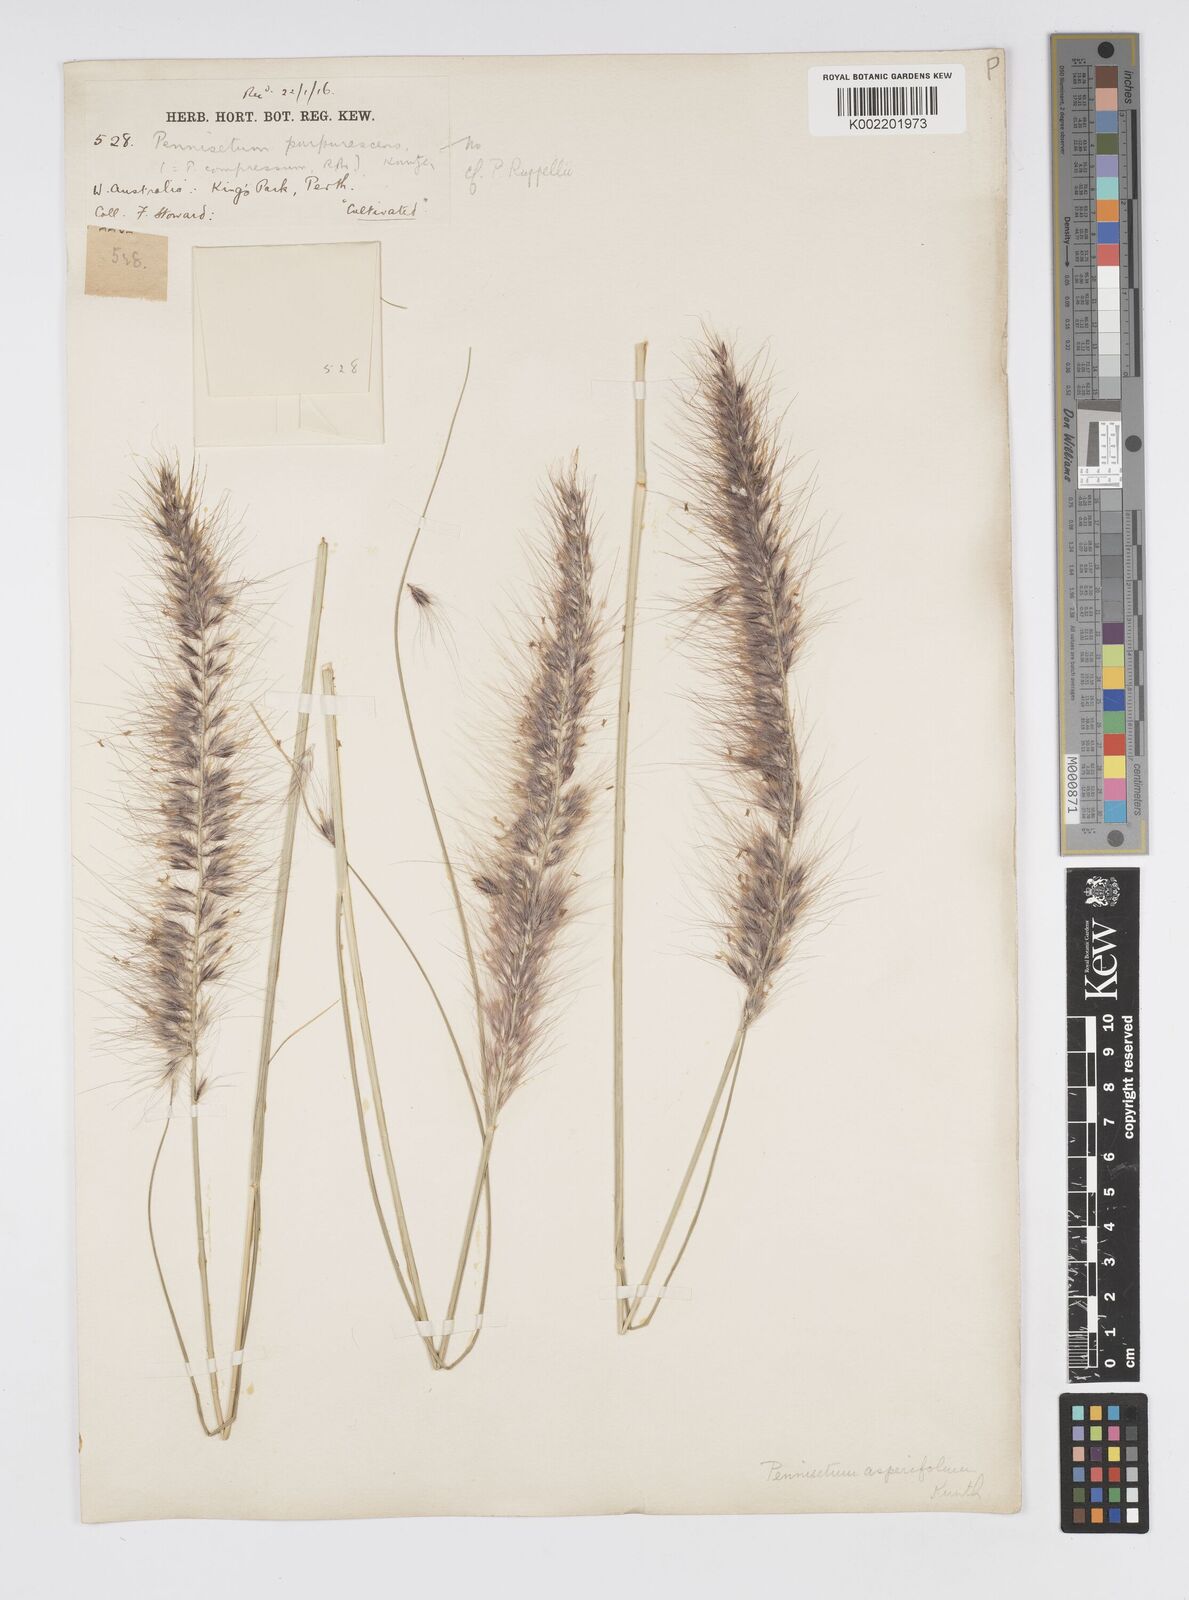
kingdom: Plantae
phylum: Tracheophyta
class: Liliopsida
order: Poales
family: Poaceae
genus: Cenchrus
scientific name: Cenchrus setaceus
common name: Crimson fountaingrass
